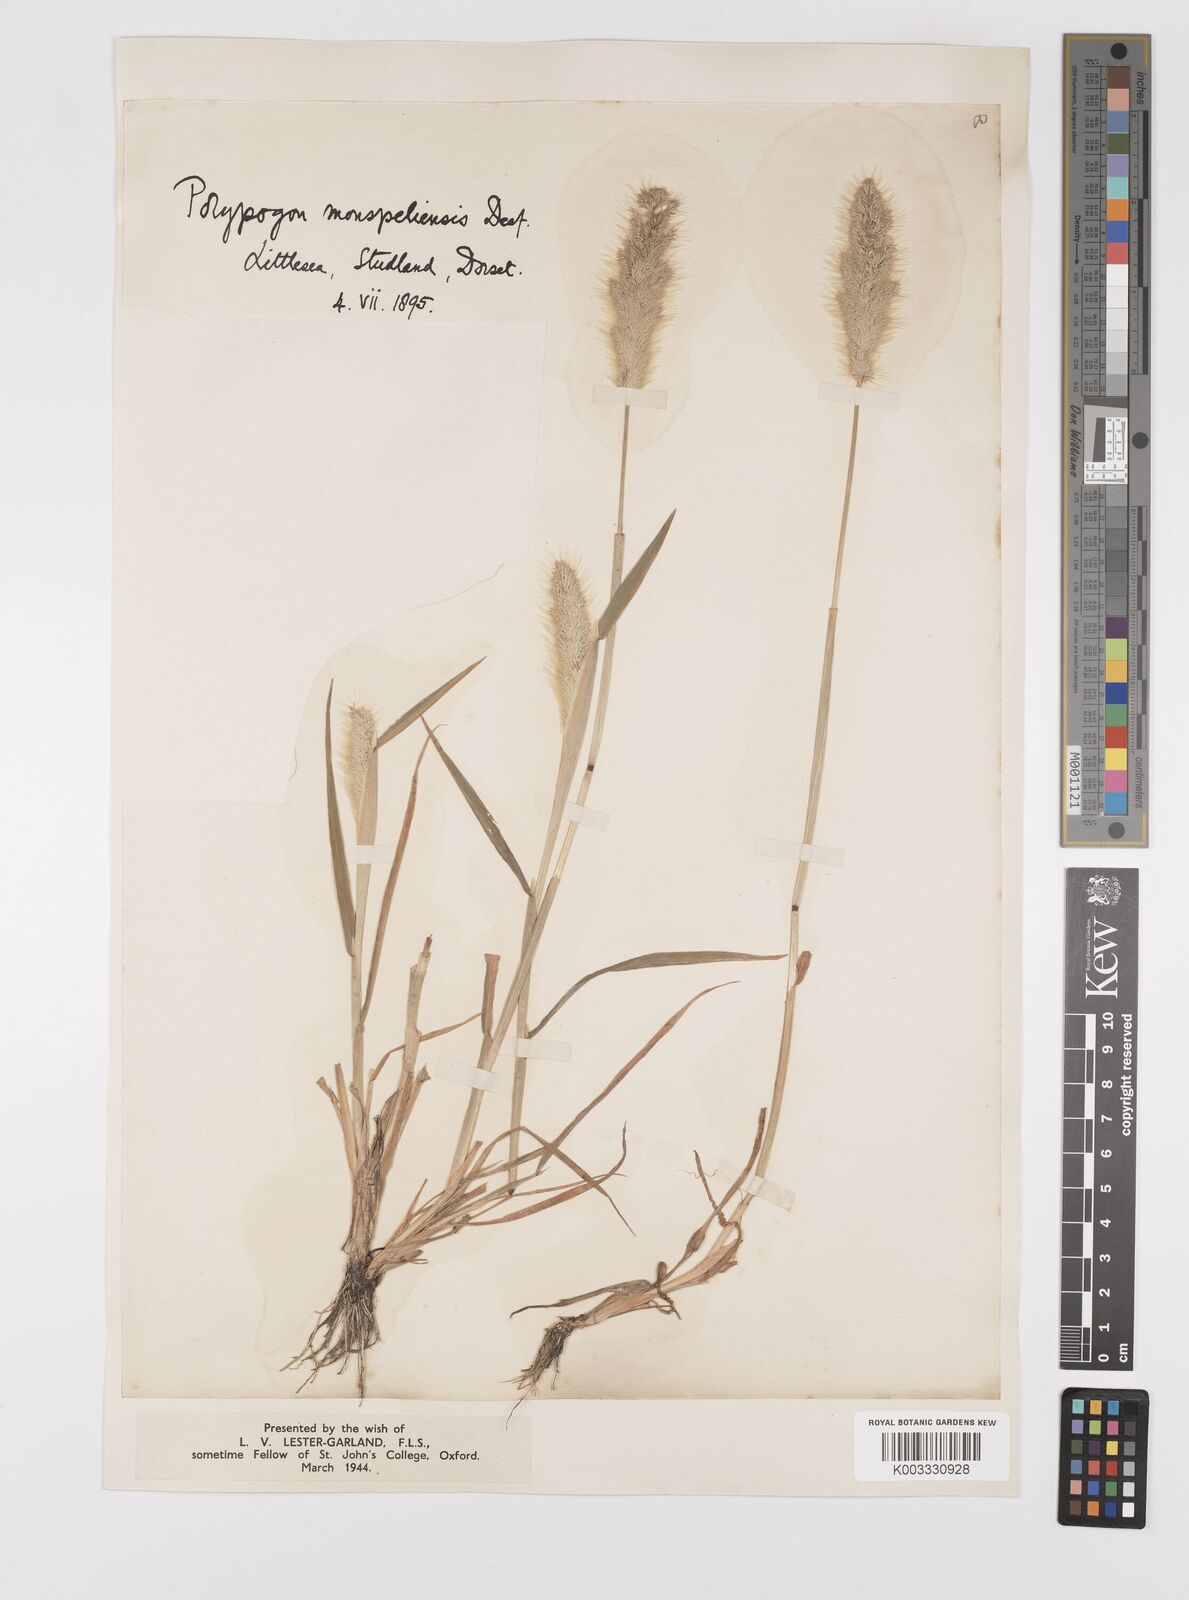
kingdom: Plantae
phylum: Tracheophyta
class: Liliopsida
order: Poales
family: Poaceae
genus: Polypogon
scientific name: Polypogon monspeliensis
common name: Annual rabbitsfoot grass
